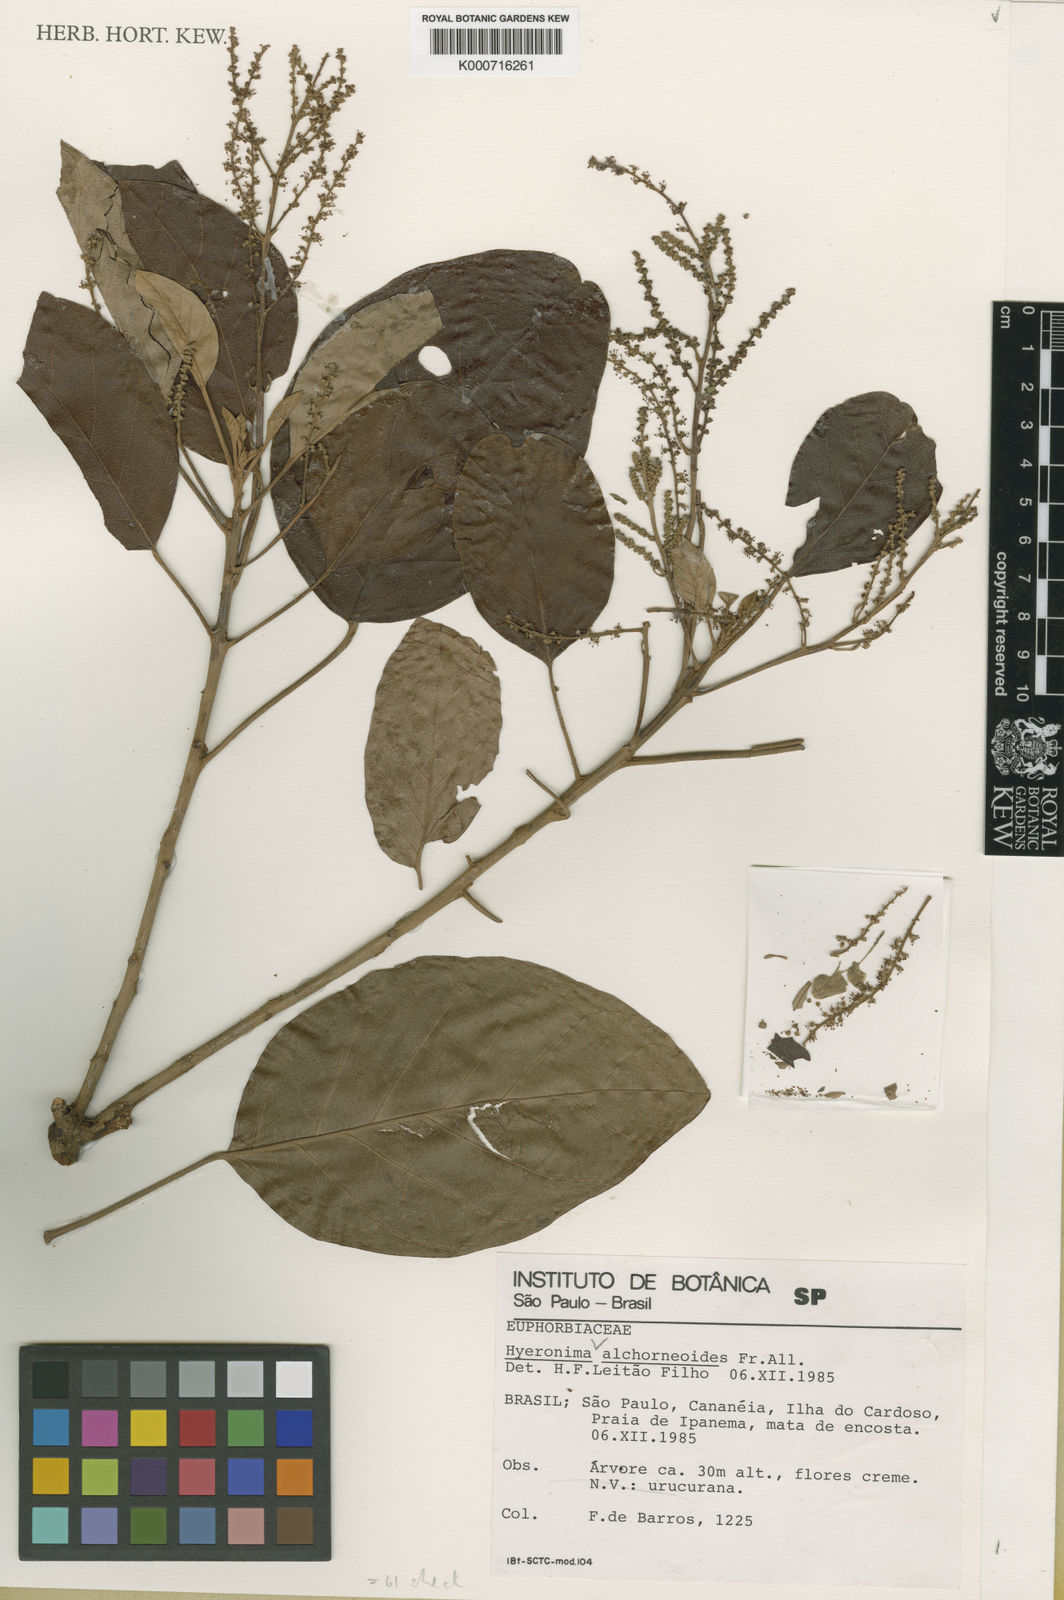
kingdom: Plantae
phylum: Tracheophyta
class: Magnoliopsida
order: Malpighiales
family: Phyllanthaceae
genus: Hieronyma
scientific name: Hieronyma
